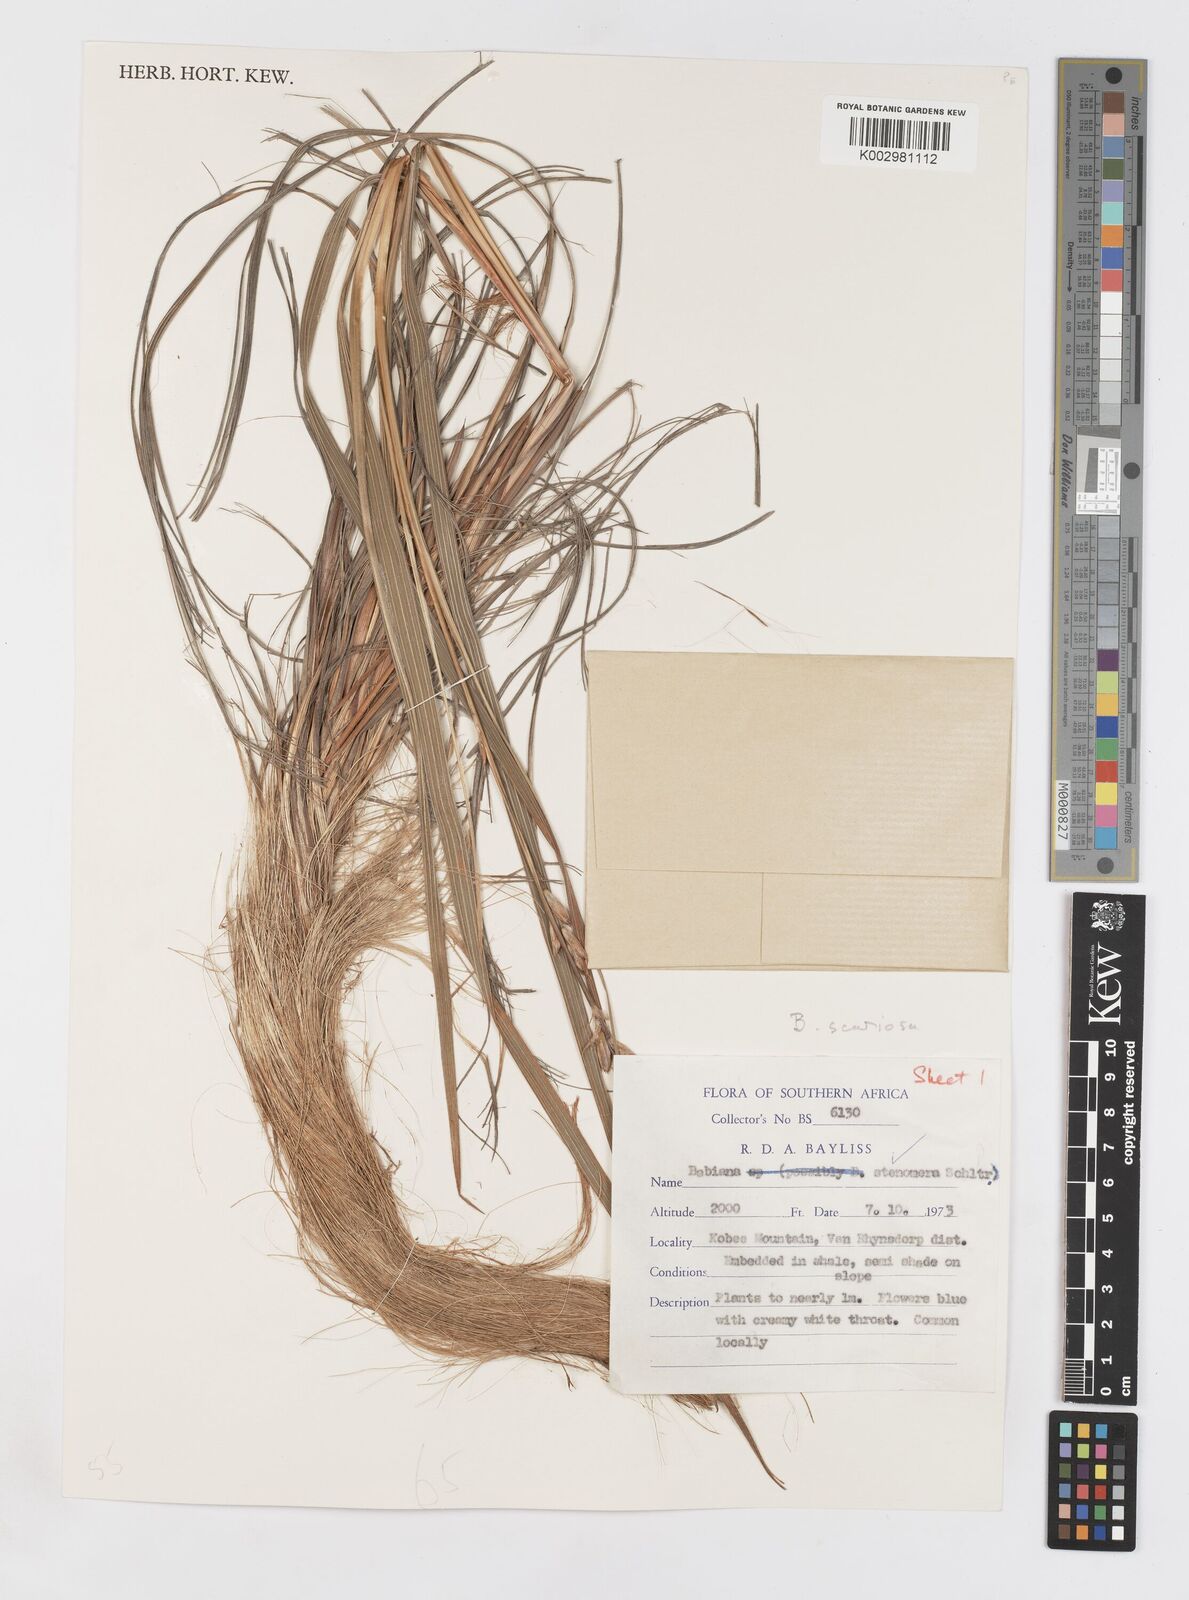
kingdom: Plantae
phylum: Tracheophyta
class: Liliopsida
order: Asparagales
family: Iridaceae
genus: Babiana
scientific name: Babiana scariosa
